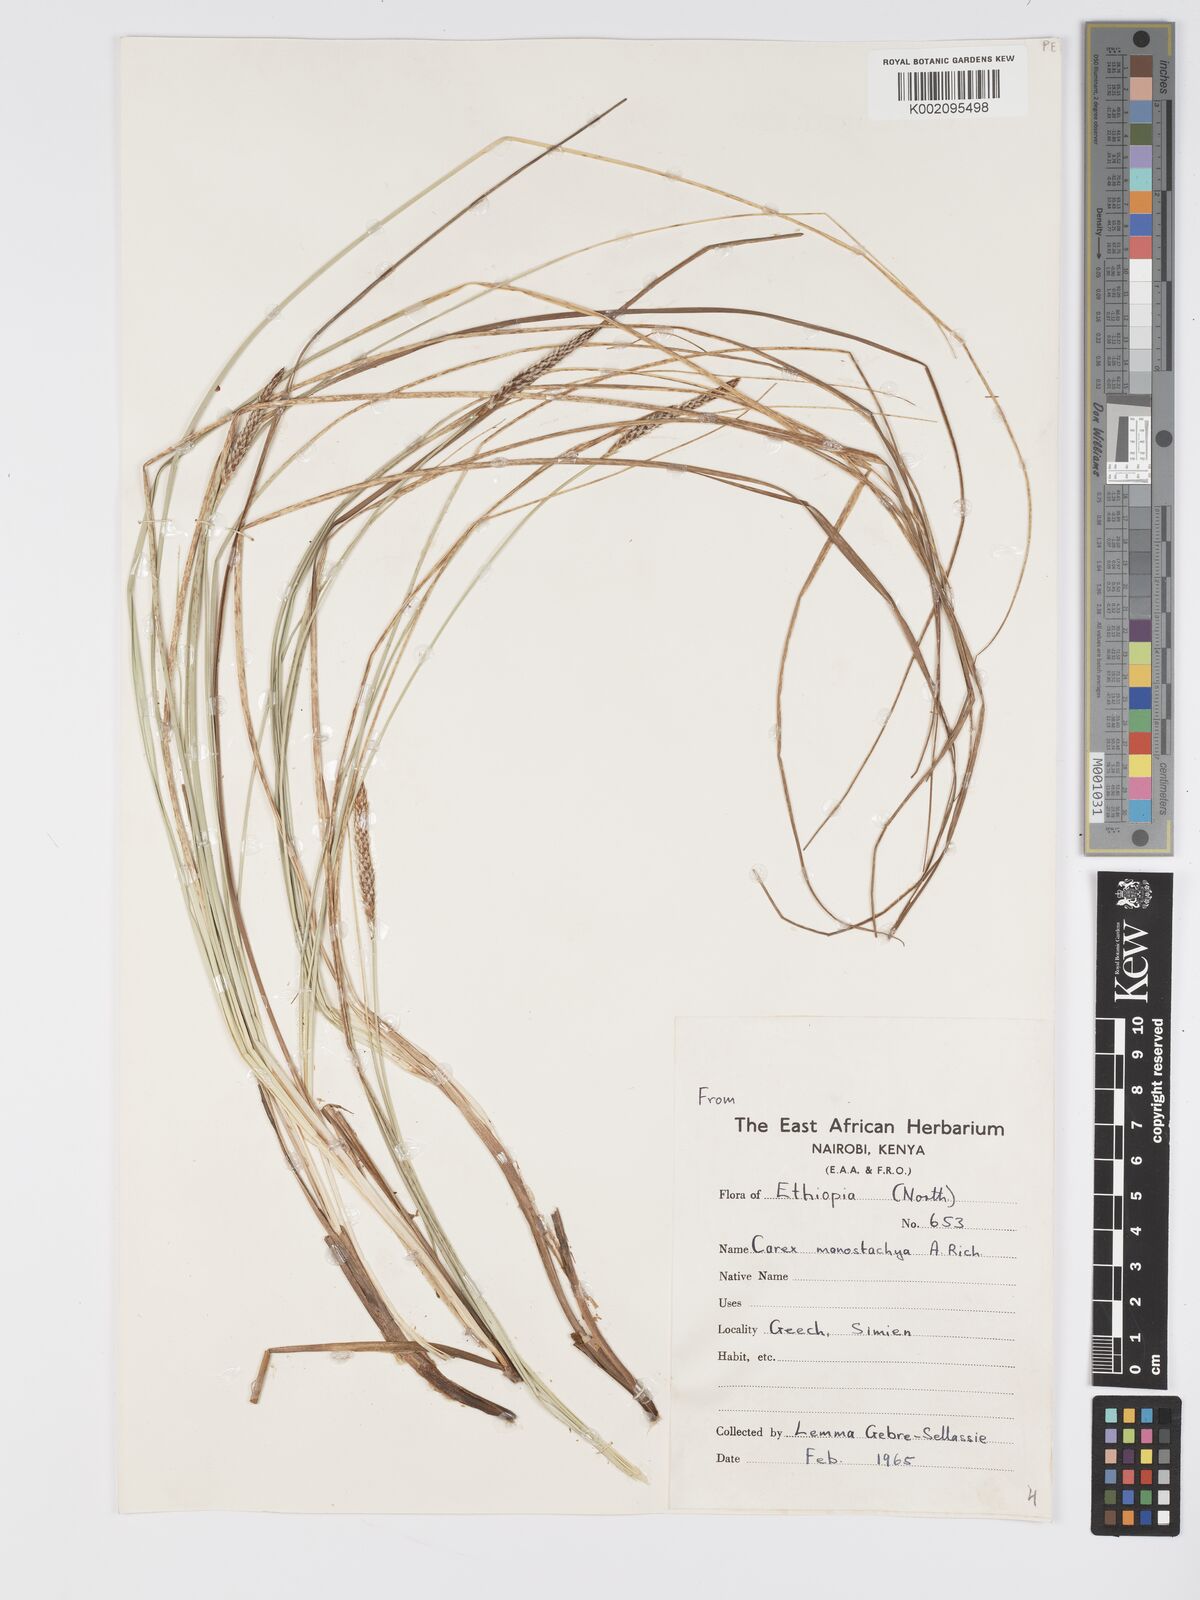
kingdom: Plantae
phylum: Tracheophyta
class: Liliopsida
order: Poales
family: Cyperaceae
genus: Carex
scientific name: Carex monostachya
